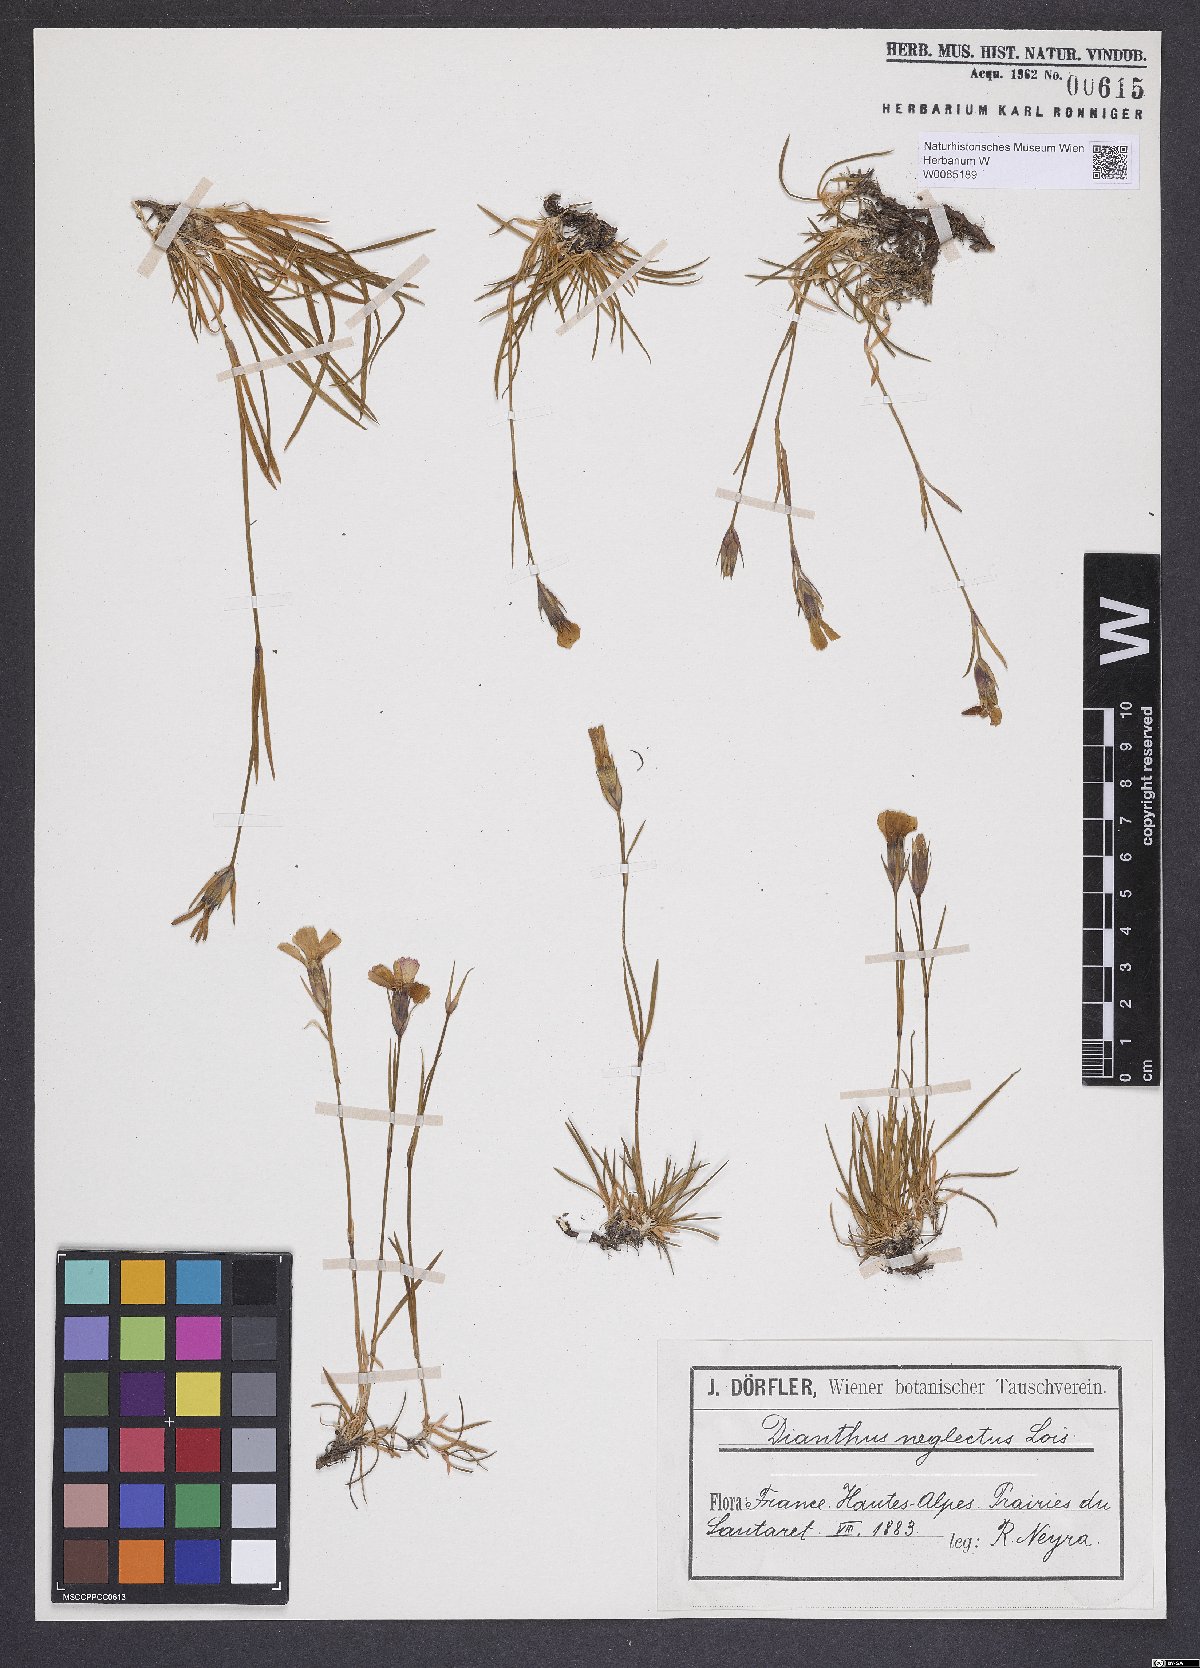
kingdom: Plantae
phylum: Tracheophyta
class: Magnoliopsida
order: Caryophyllales
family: Caryophyllaceae
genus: Dianthus
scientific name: Dianthus pavonius
